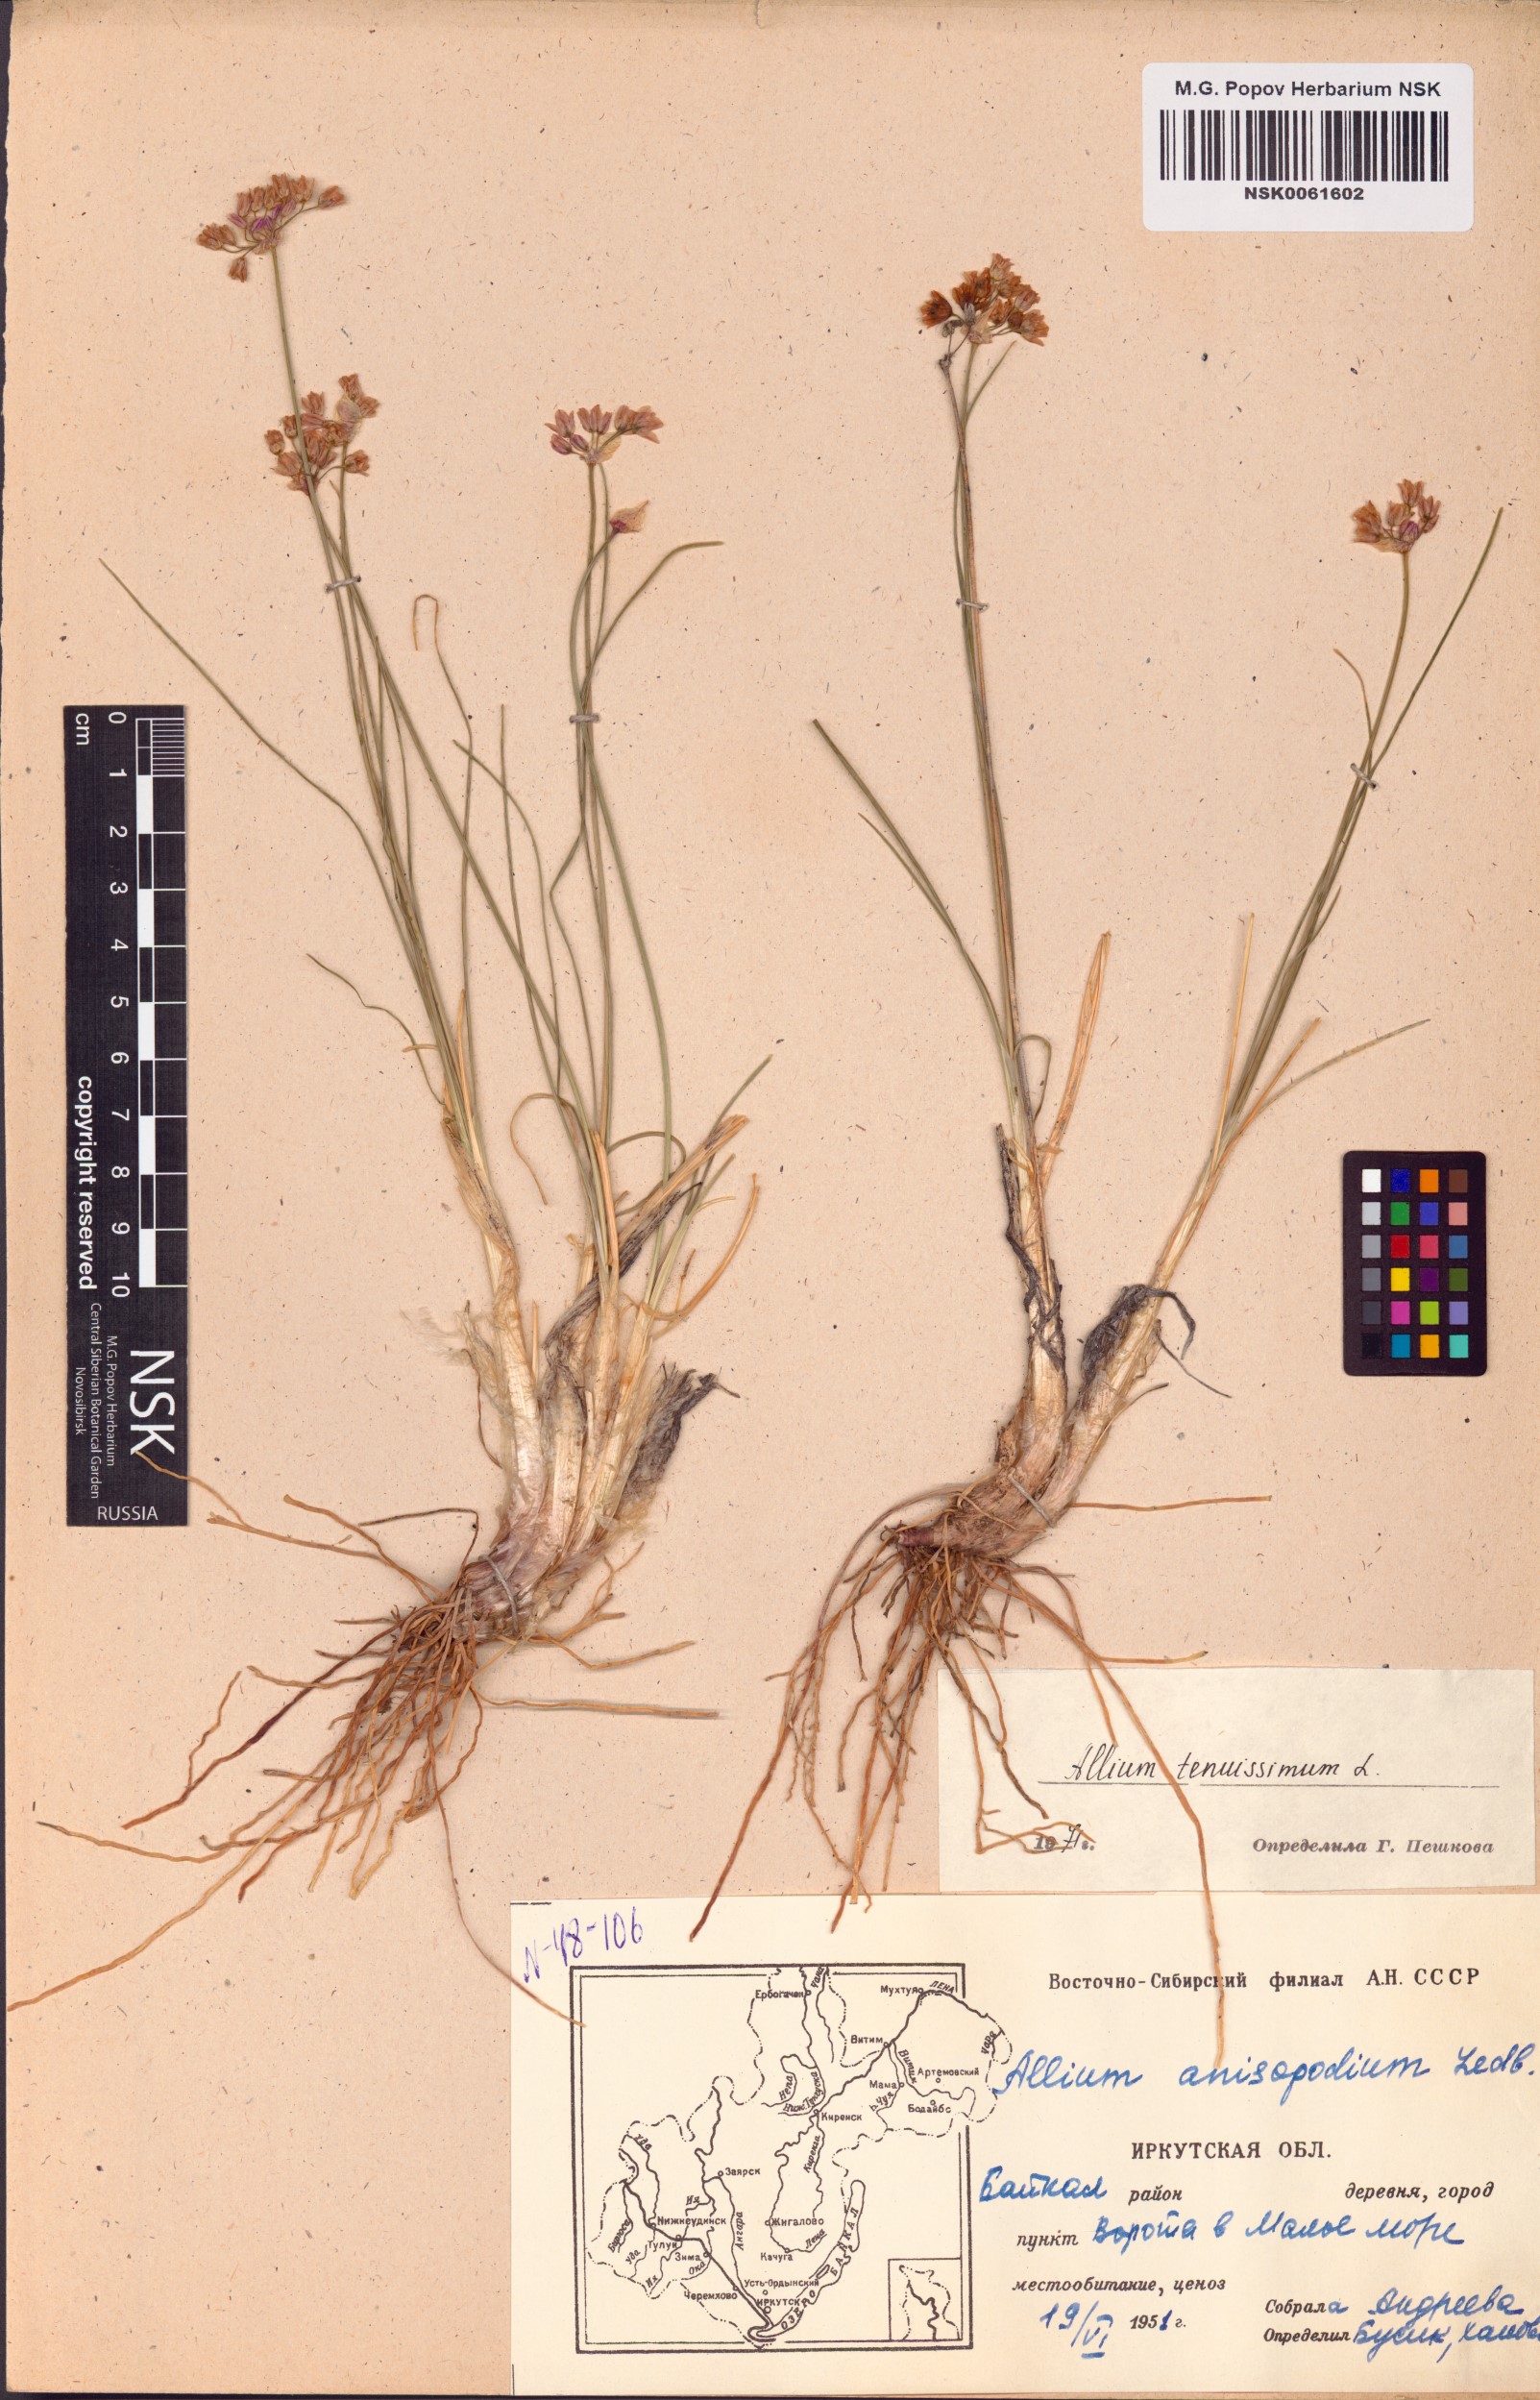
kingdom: Plantae
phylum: Tracheophyta
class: Liliopsida
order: Asparagales
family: Amaryllidaceae
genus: Allium
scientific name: Allium tenuissimum
